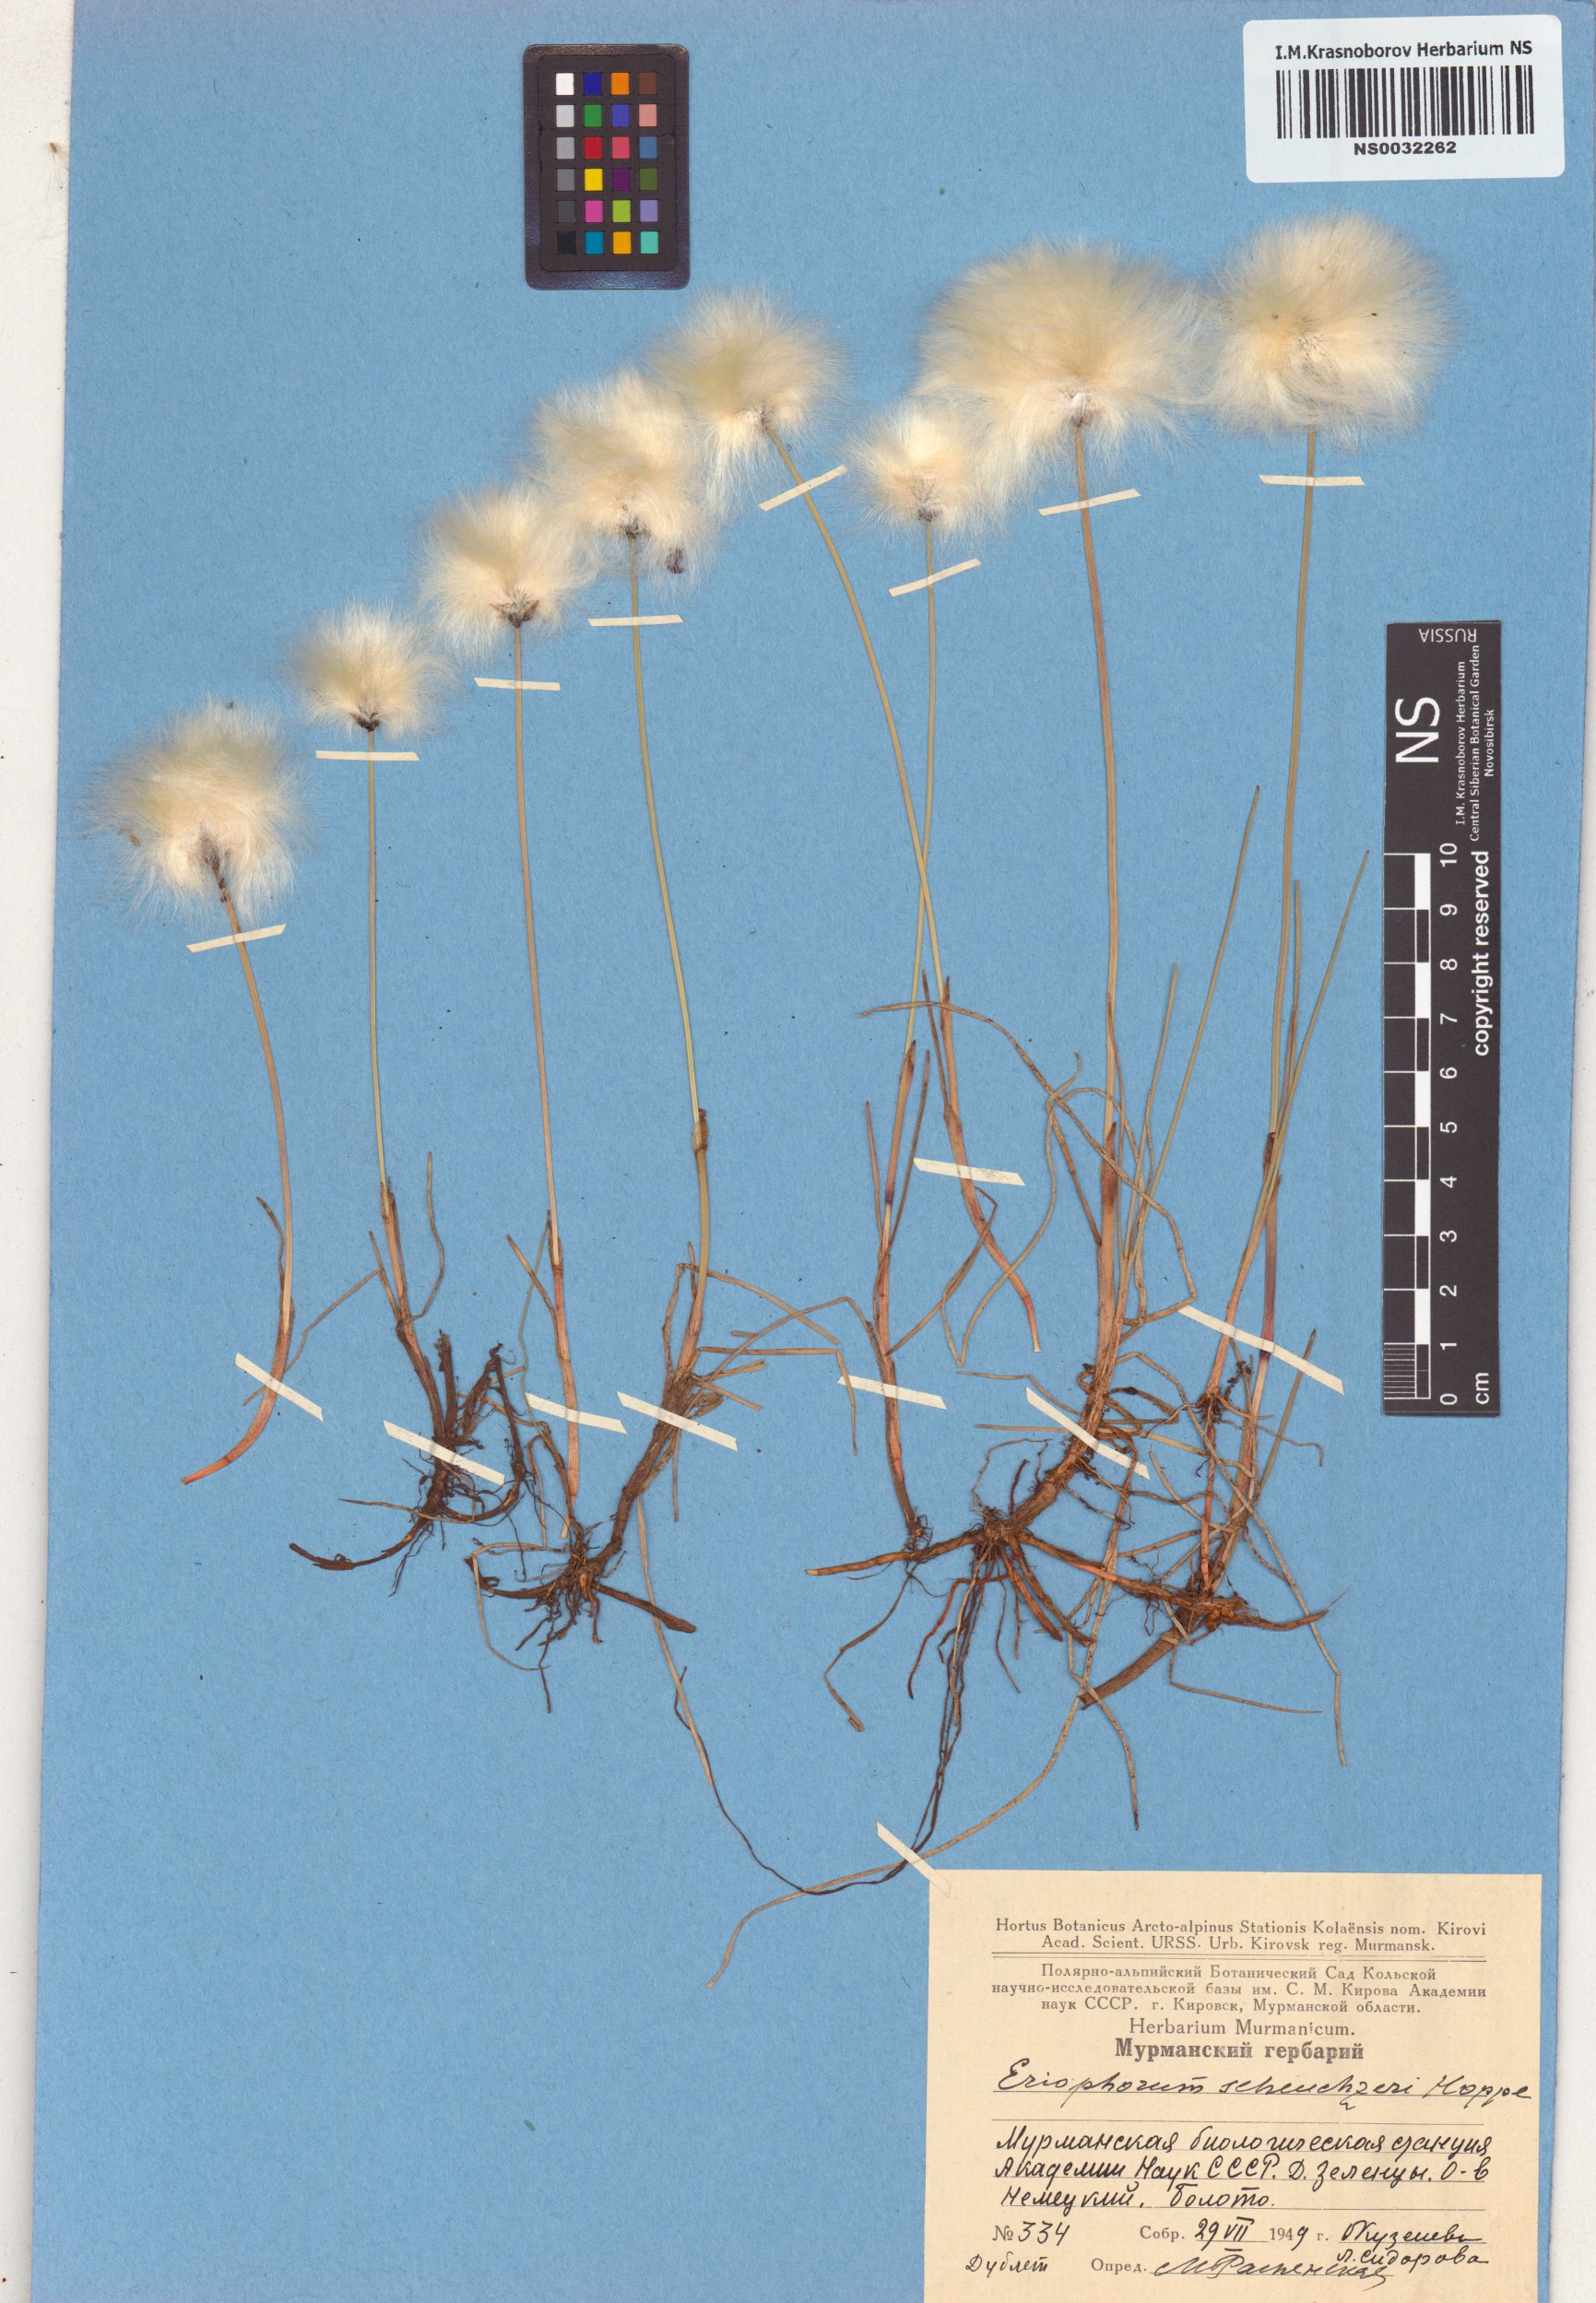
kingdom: Plantae
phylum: Tracheophyta
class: Liliopsida
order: Poales
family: Cyperaceae
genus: Eriophorum
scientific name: Eriophorum scheuchzeri
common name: Scheuchzer's cottongrass
